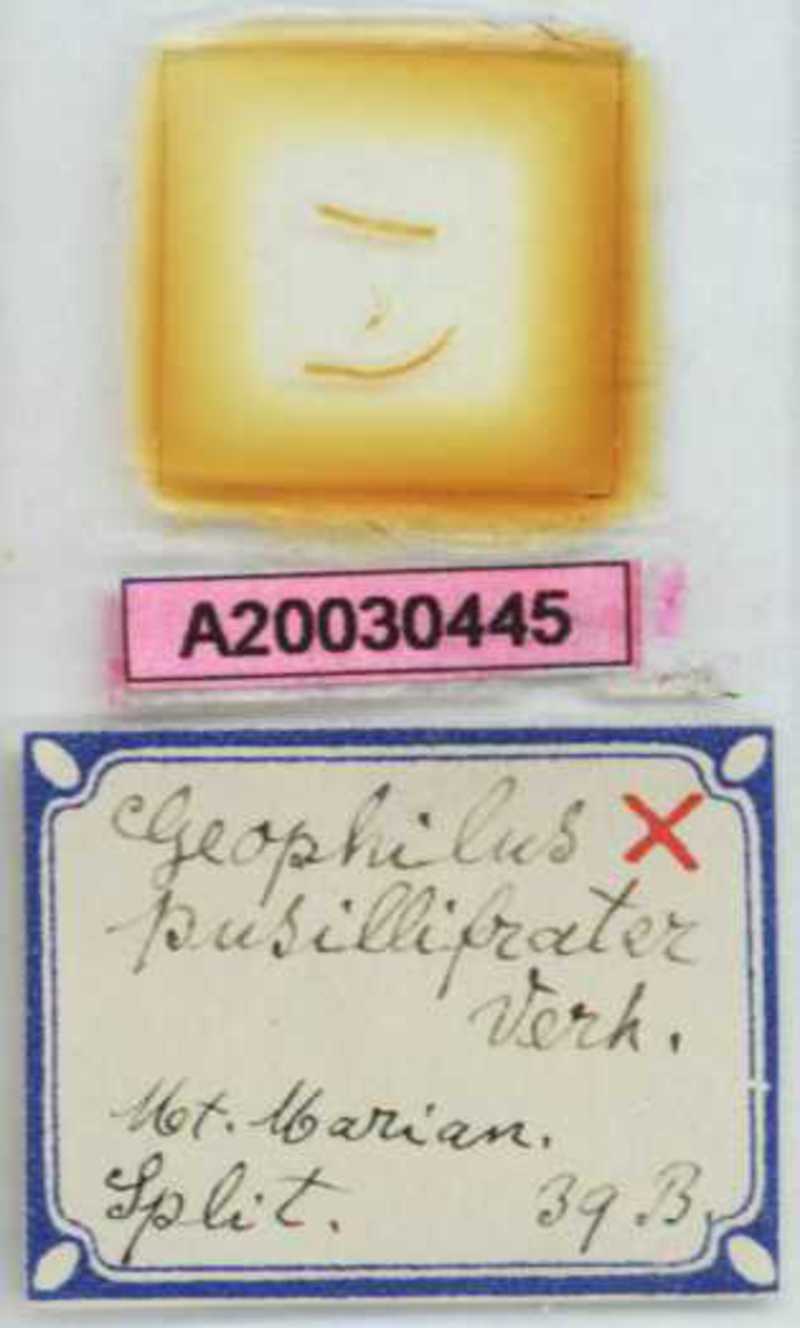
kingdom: Animalia
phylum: Arthropoda
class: Chilopoda
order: Geophilomorpha
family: Geophilidae
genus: Geophilus
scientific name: Geophilus pusillifrater
